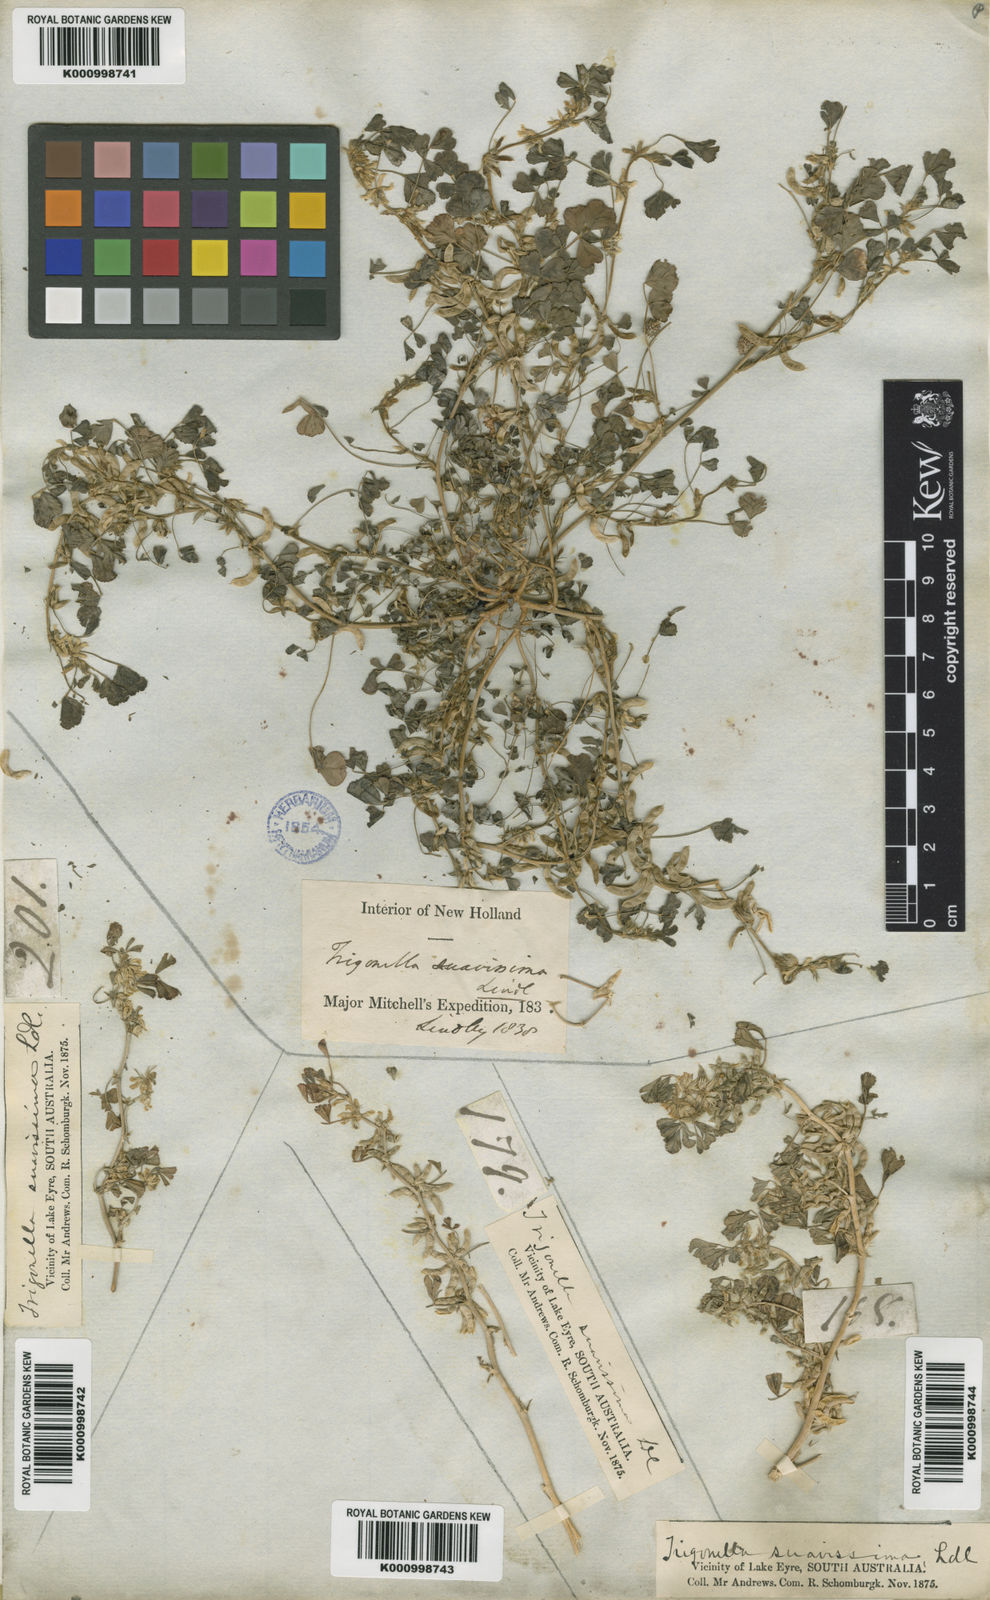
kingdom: Plantae
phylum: Tracheophyta
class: Magnoliopsida
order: Fabales
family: Fabaceae
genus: Trigonella
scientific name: Trigonella suavissima
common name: Cooper-clover
